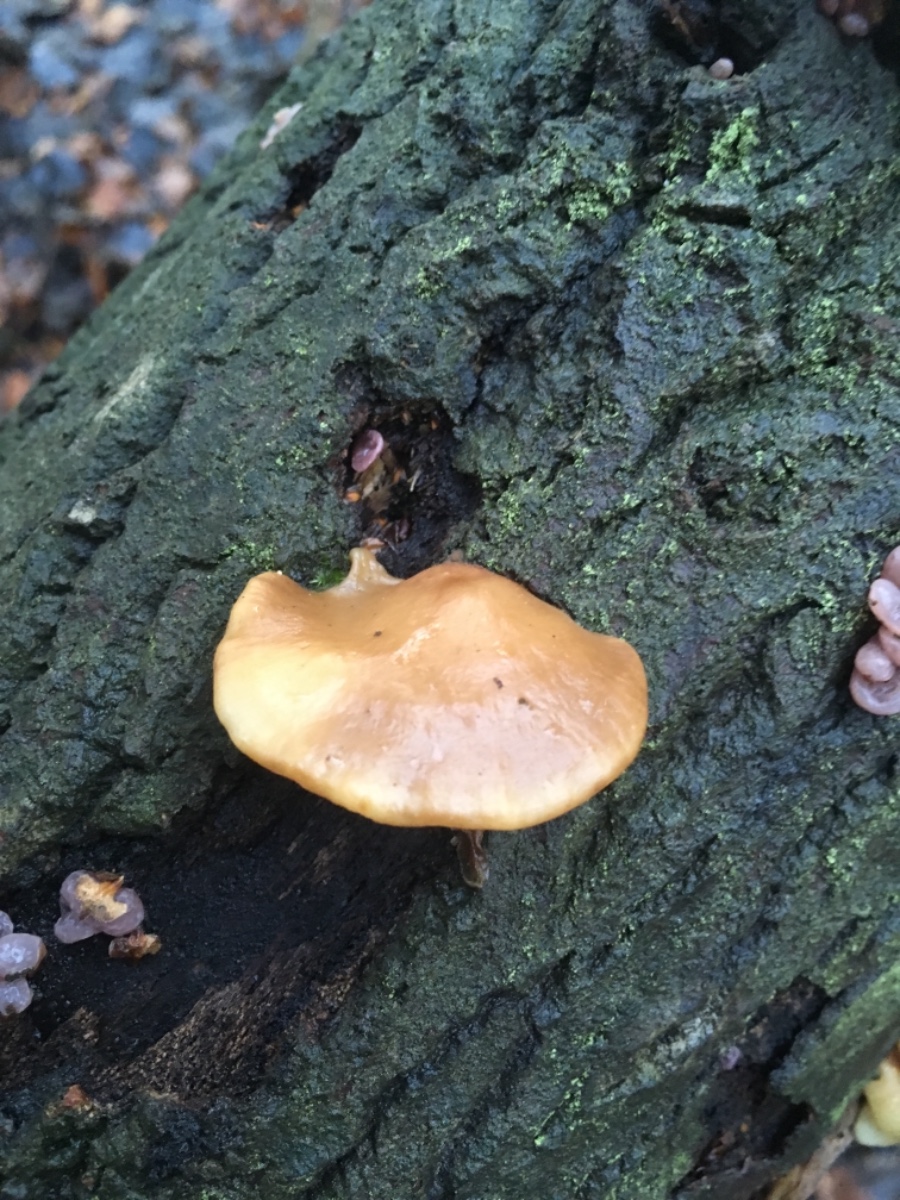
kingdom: Fungi
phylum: Basidiomycota
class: Agaricomycetes
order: Agaricales
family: Crepidotaceae
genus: Crepidotus
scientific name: Crepidotus mollis
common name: blød muslingesvamp
